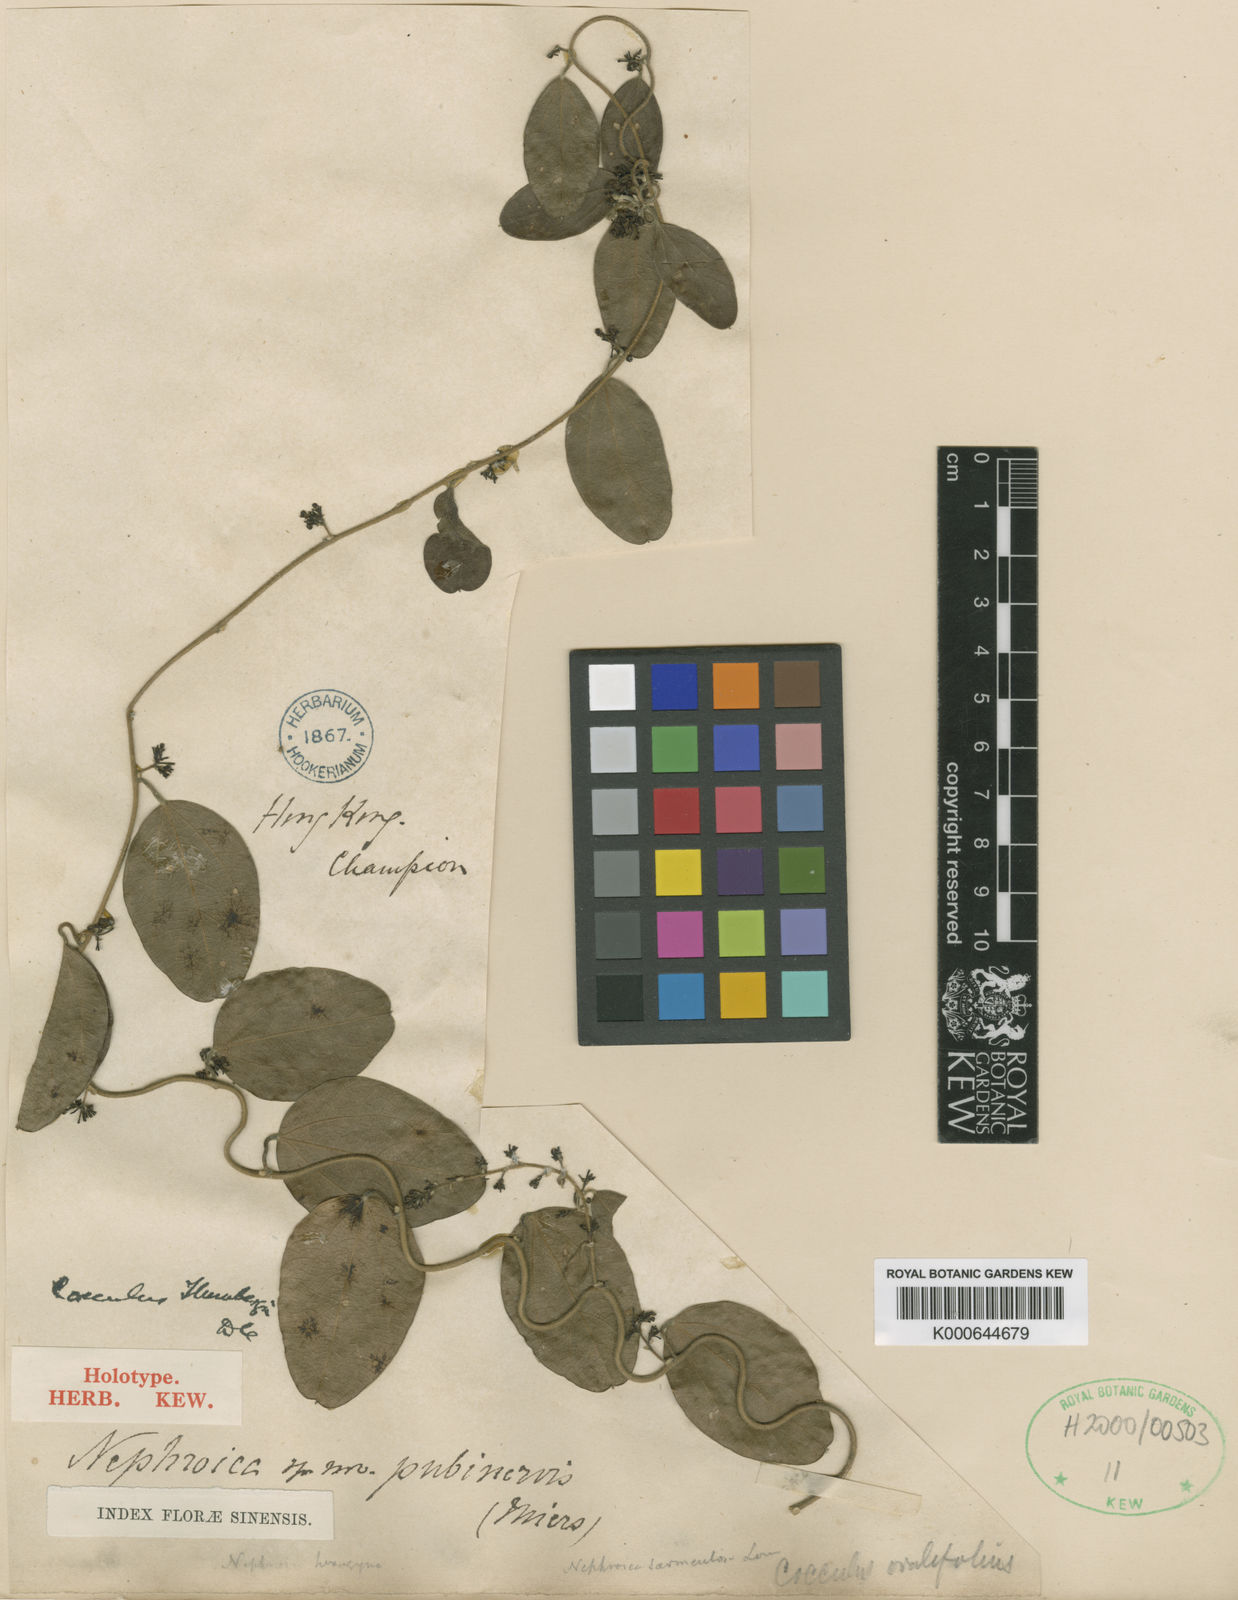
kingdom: Plantae
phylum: Tracheophyta
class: Magnoliopsida
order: Ranunculales
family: Menispermaceae
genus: Cocculus
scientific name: Cocculus orbiculatus
